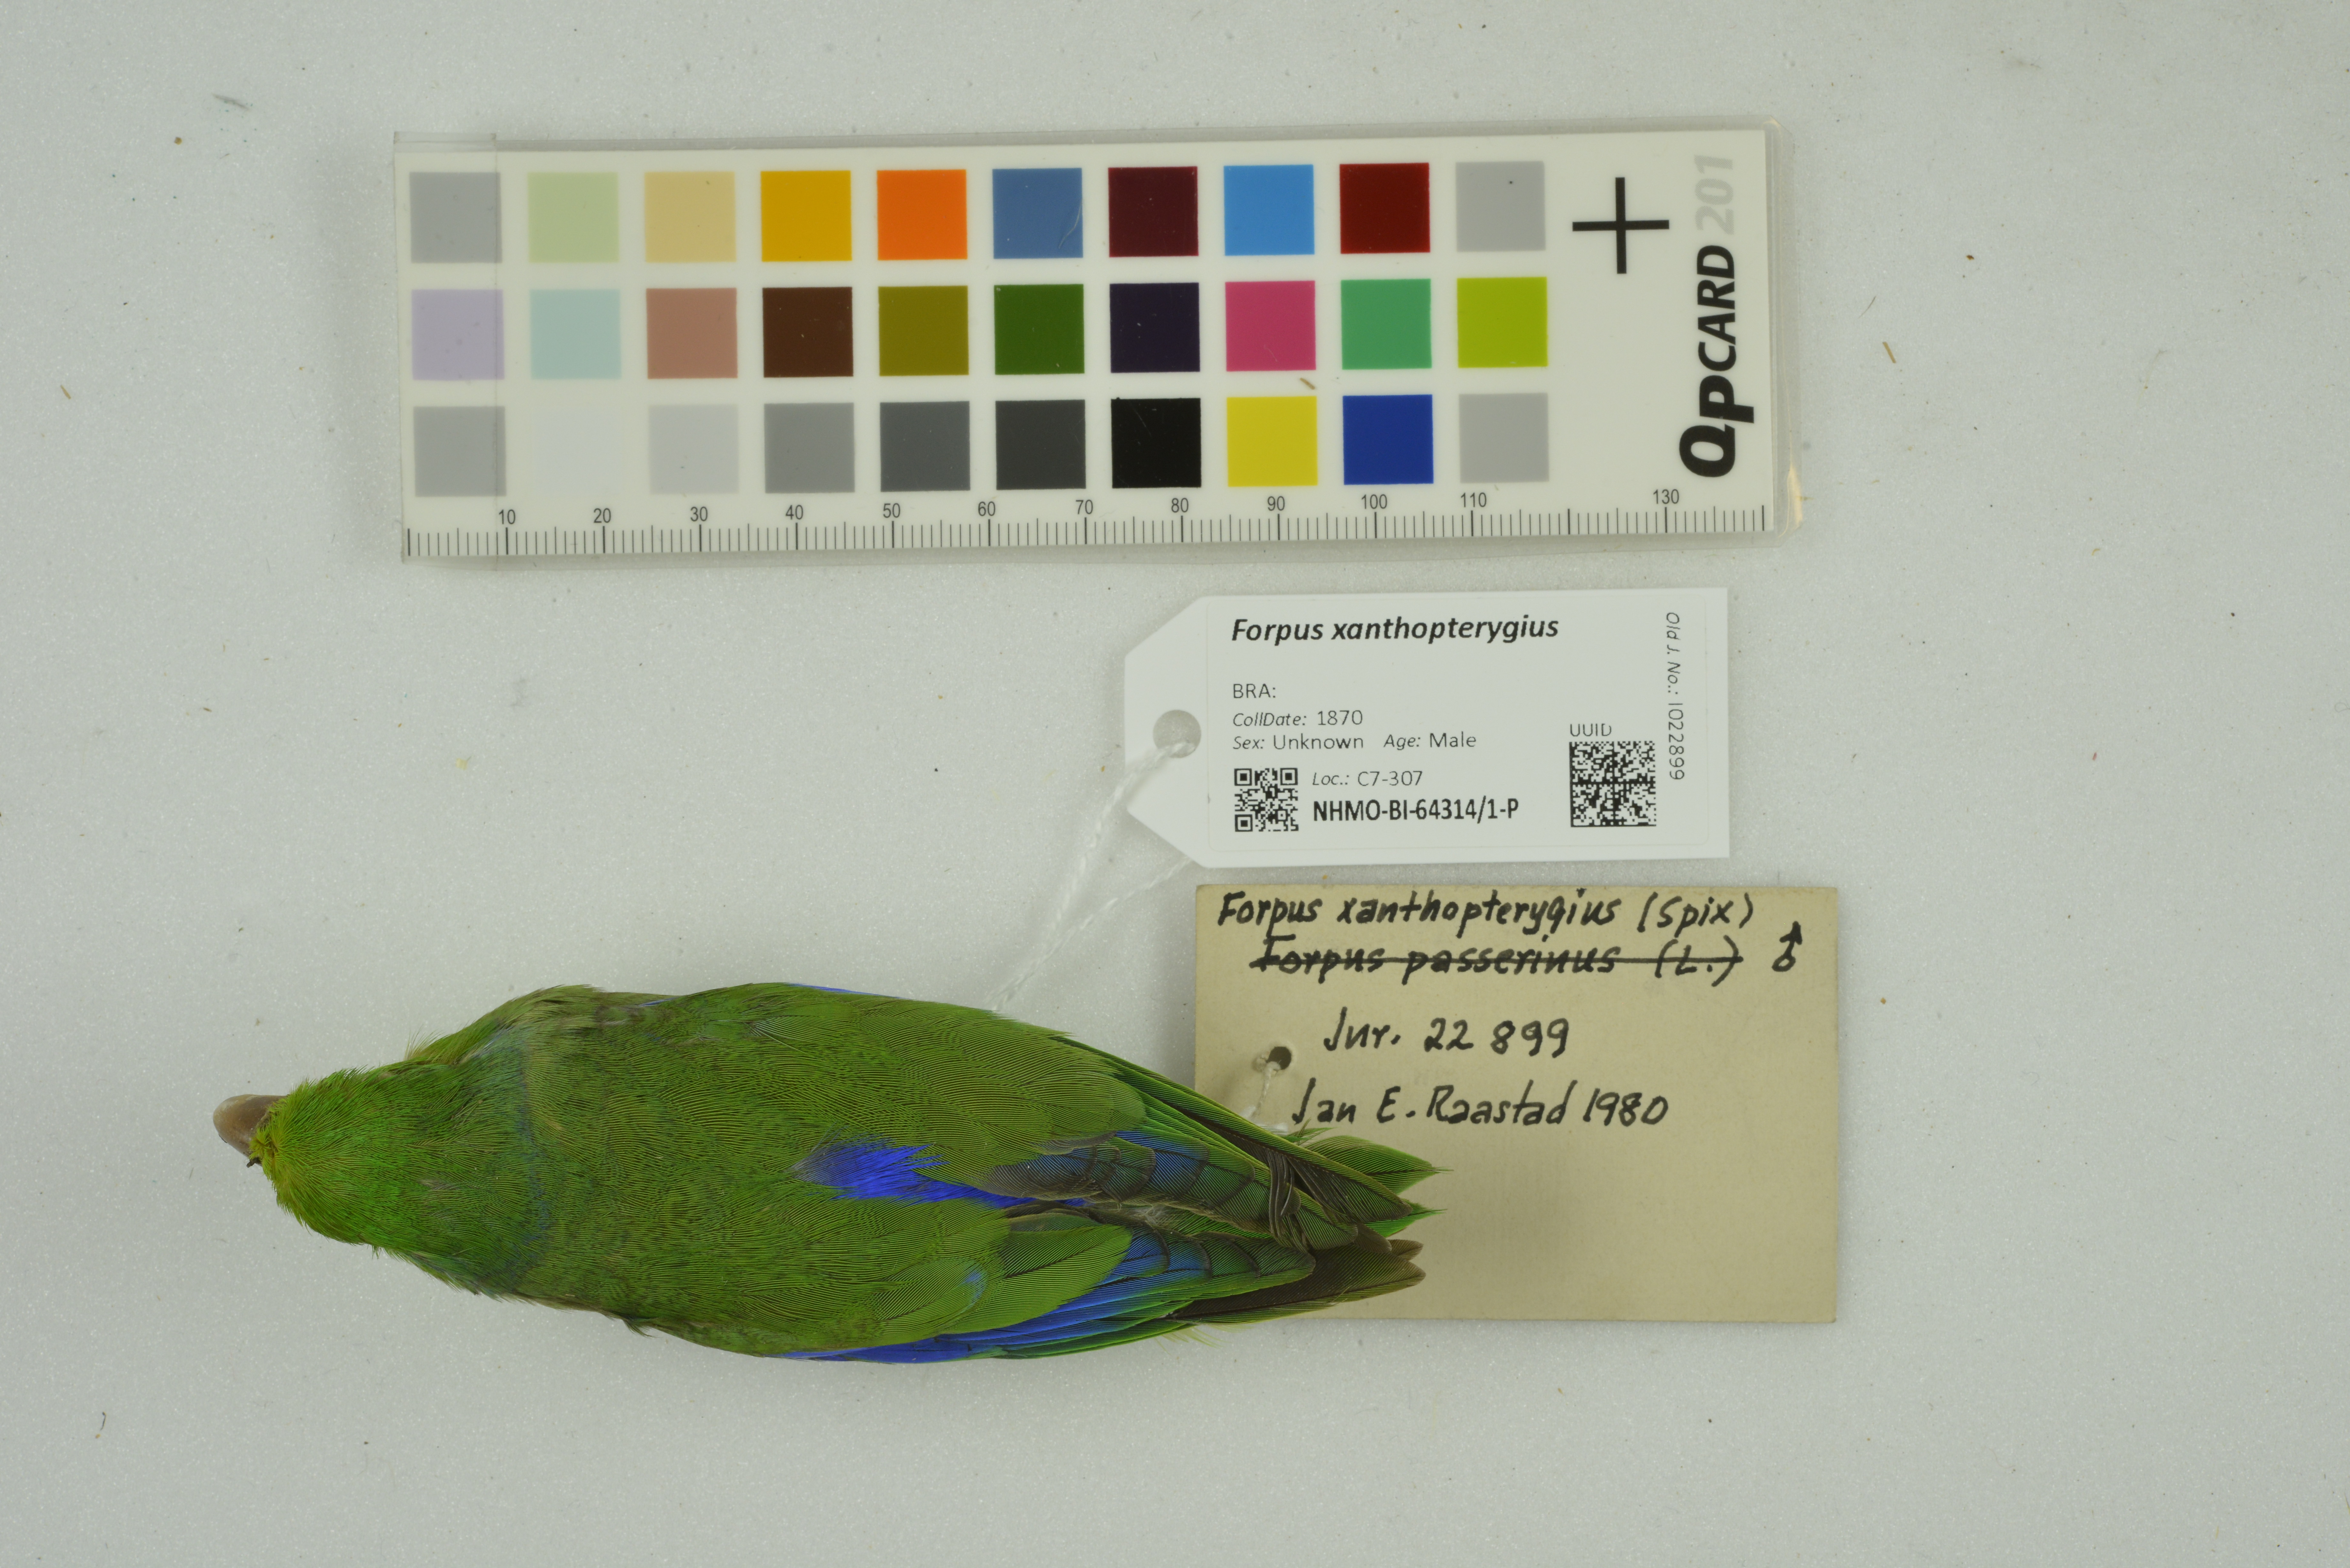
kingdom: Animalia
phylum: Chordata
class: Aves
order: Psittaciformes
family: Psittacidae
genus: Forpus
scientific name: Forpus xanthopterygius
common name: Blue-winged parrotlet
